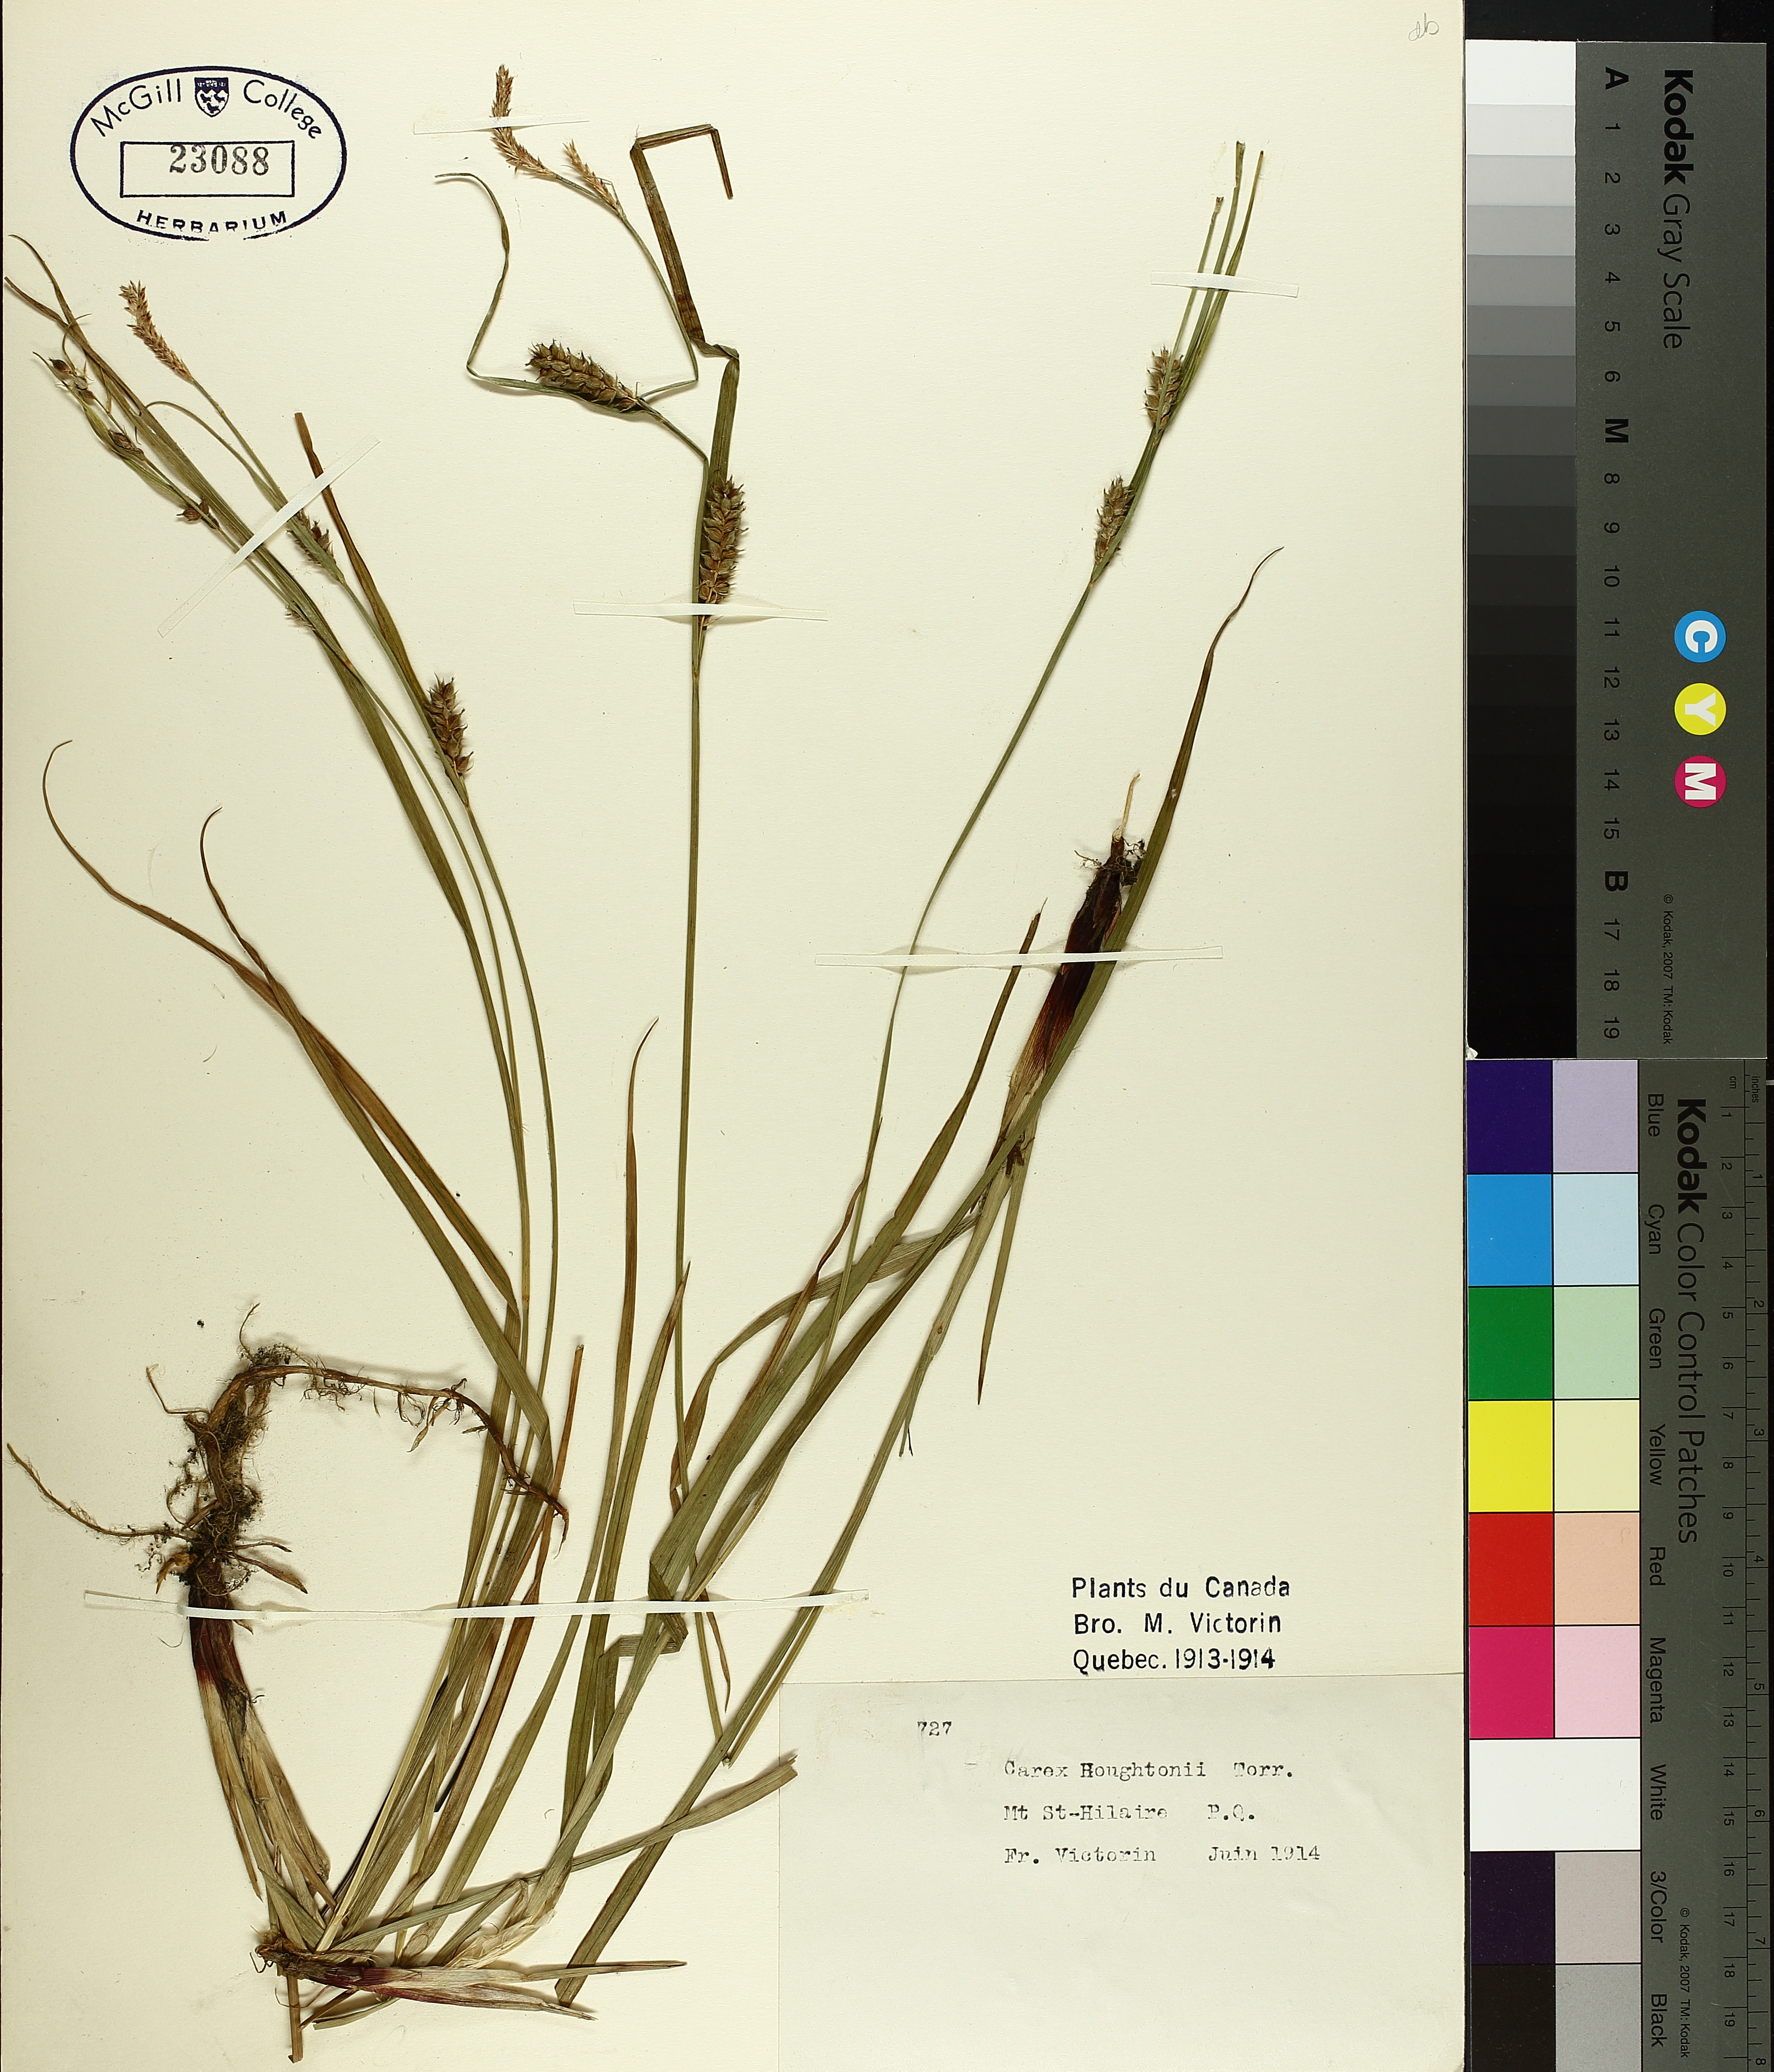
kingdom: Plantae
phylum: Tracheophyta
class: Liliopsida
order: Poales
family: Cyperaceae
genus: Carex
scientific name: Carex houghtoniana
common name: Houghton's sedge
